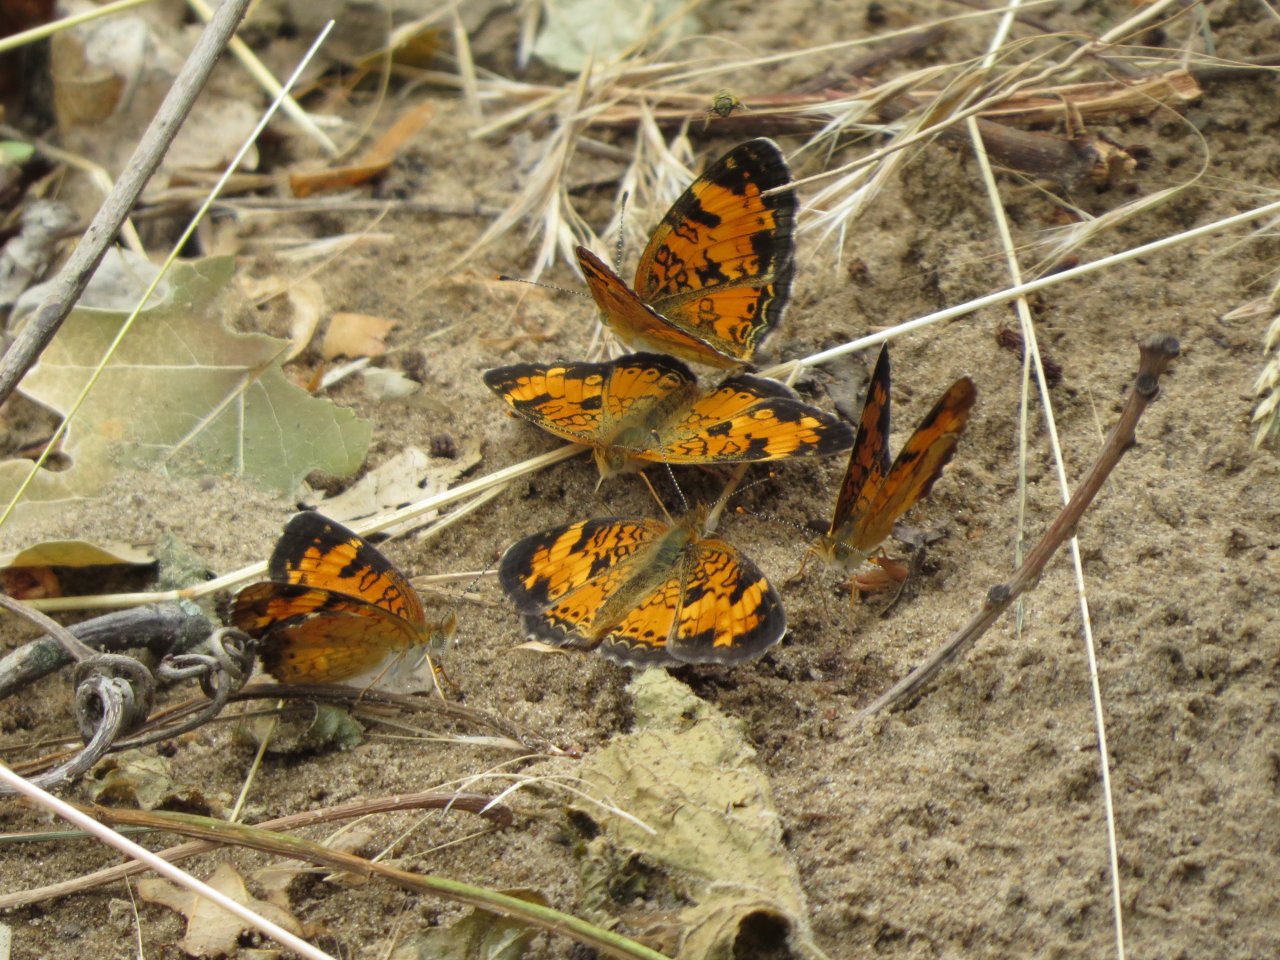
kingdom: Animalia
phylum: Arthropoda
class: Insecta
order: Lepidoptera
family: Nymphalidae
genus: Phyciodes
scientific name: Phyciodes tharos
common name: Northern Crescent
